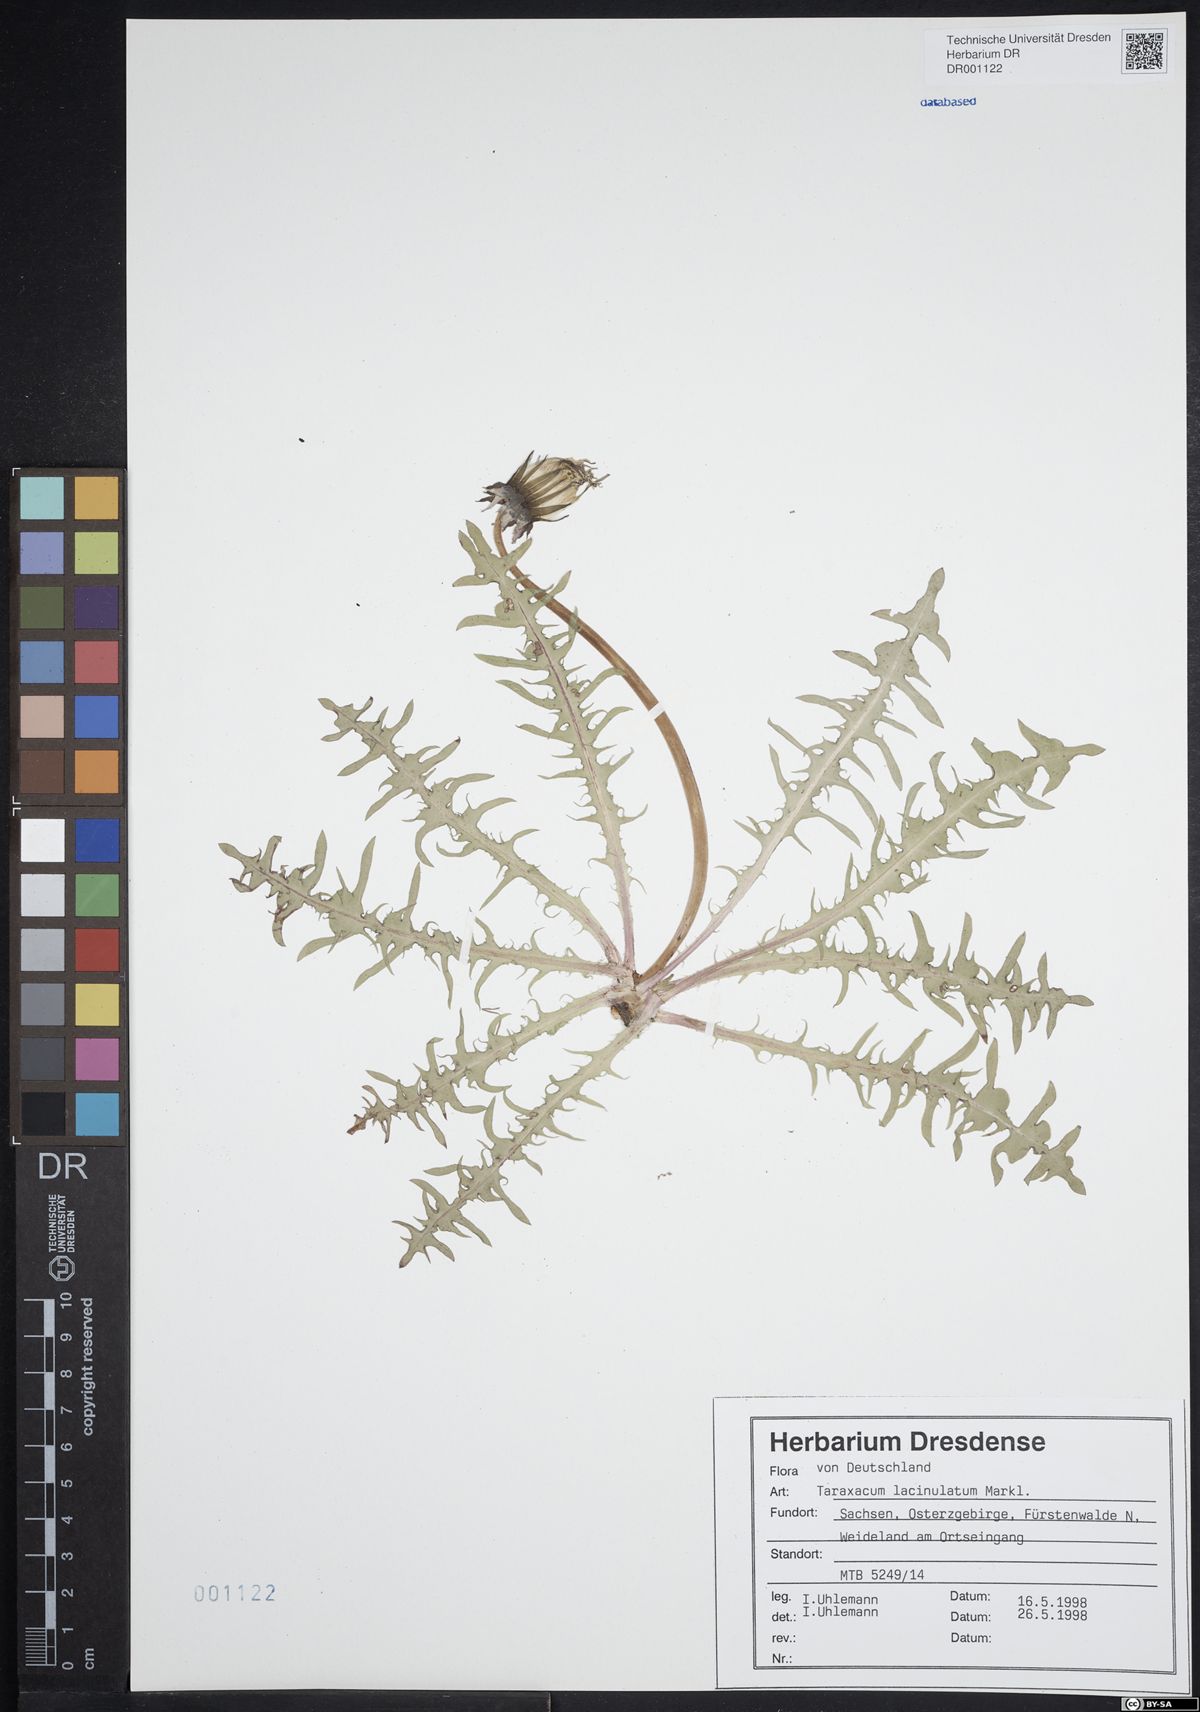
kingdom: Plantae
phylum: Tracheophyta
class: Magnoliopsida
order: Asterales
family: Asteraceae
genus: Taraxacum
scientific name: Taraxacum lacinulatum
